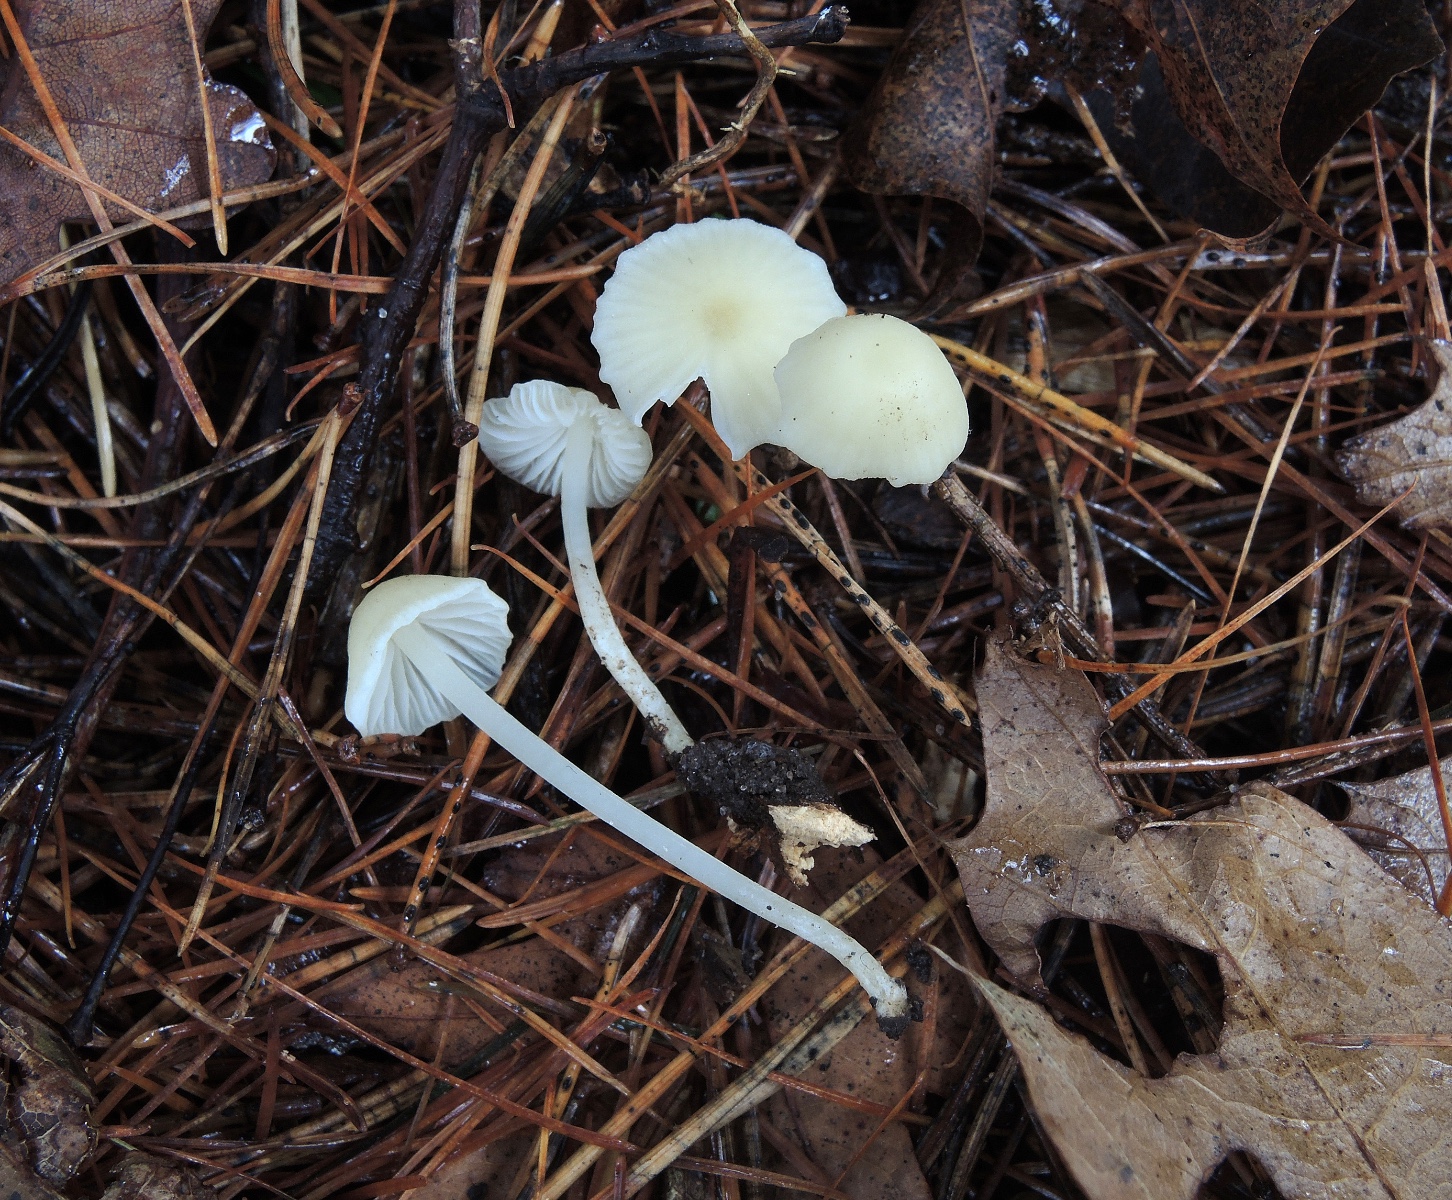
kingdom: Fungi
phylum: Basidiomycota
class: Agaricomycetes
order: Agaricales
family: Mycenaceae
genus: Atheniella
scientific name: Atheniella flavoalba
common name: gulhvid huesvamp
